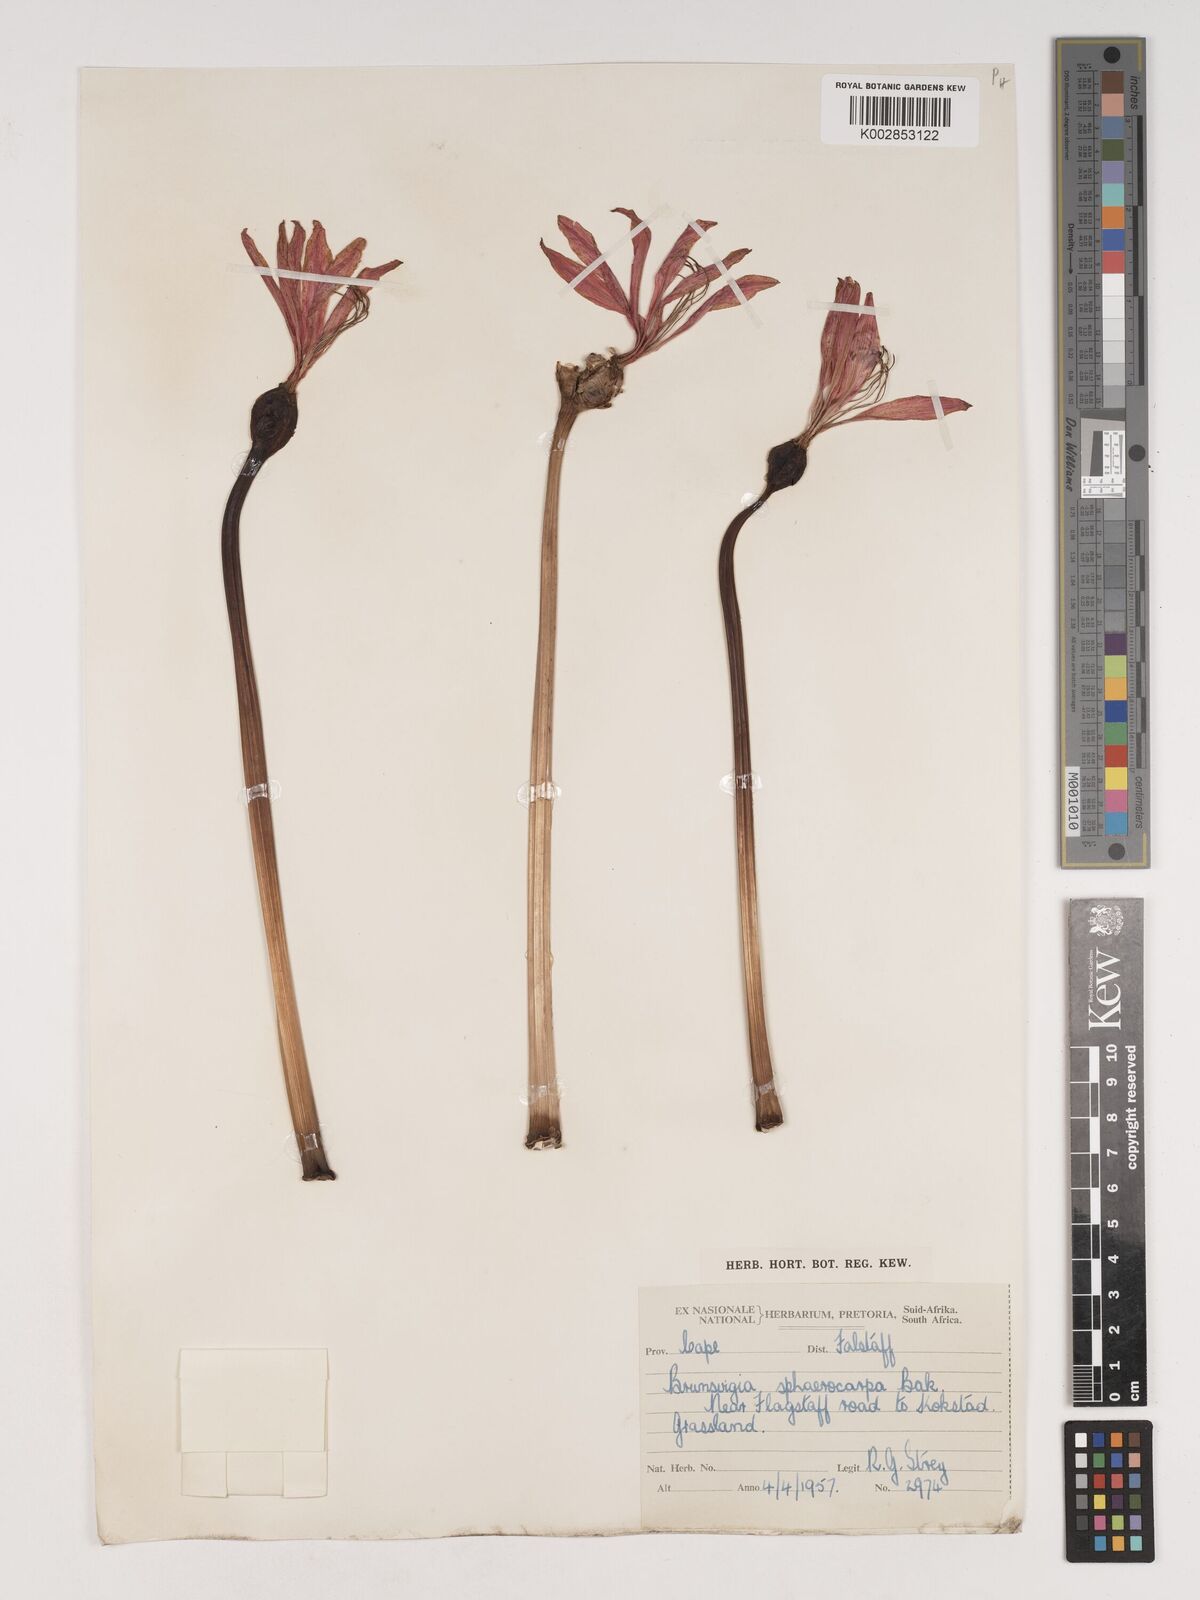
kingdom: Plantae
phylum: Tracheophyta
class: Liliopsida
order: Asparagales
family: Amaryllidaceae
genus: Brunsvigia
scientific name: Brunsvigia grandiflora
